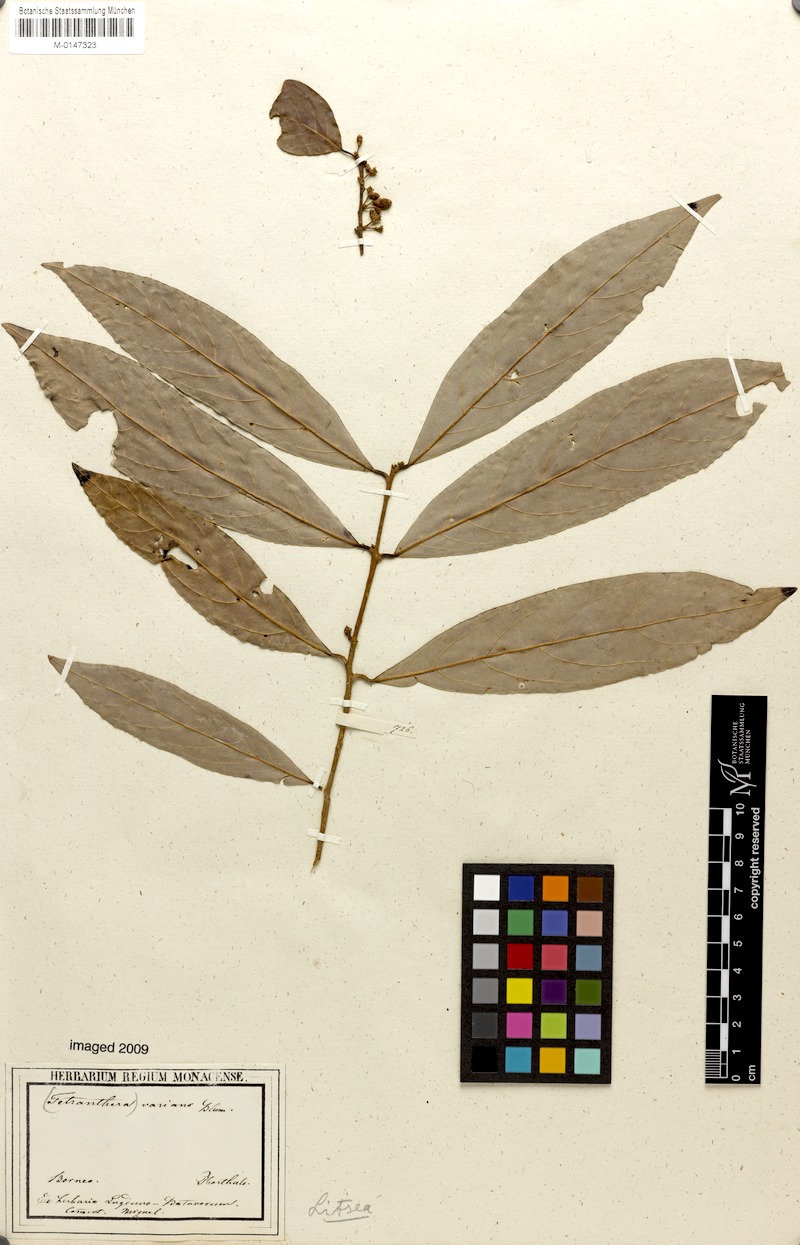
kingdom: Plantae
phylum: Tracheophyta
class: Magnoliopsida
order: Laurales
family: Lauraceae
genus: Litsea
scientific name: Litsea varians
